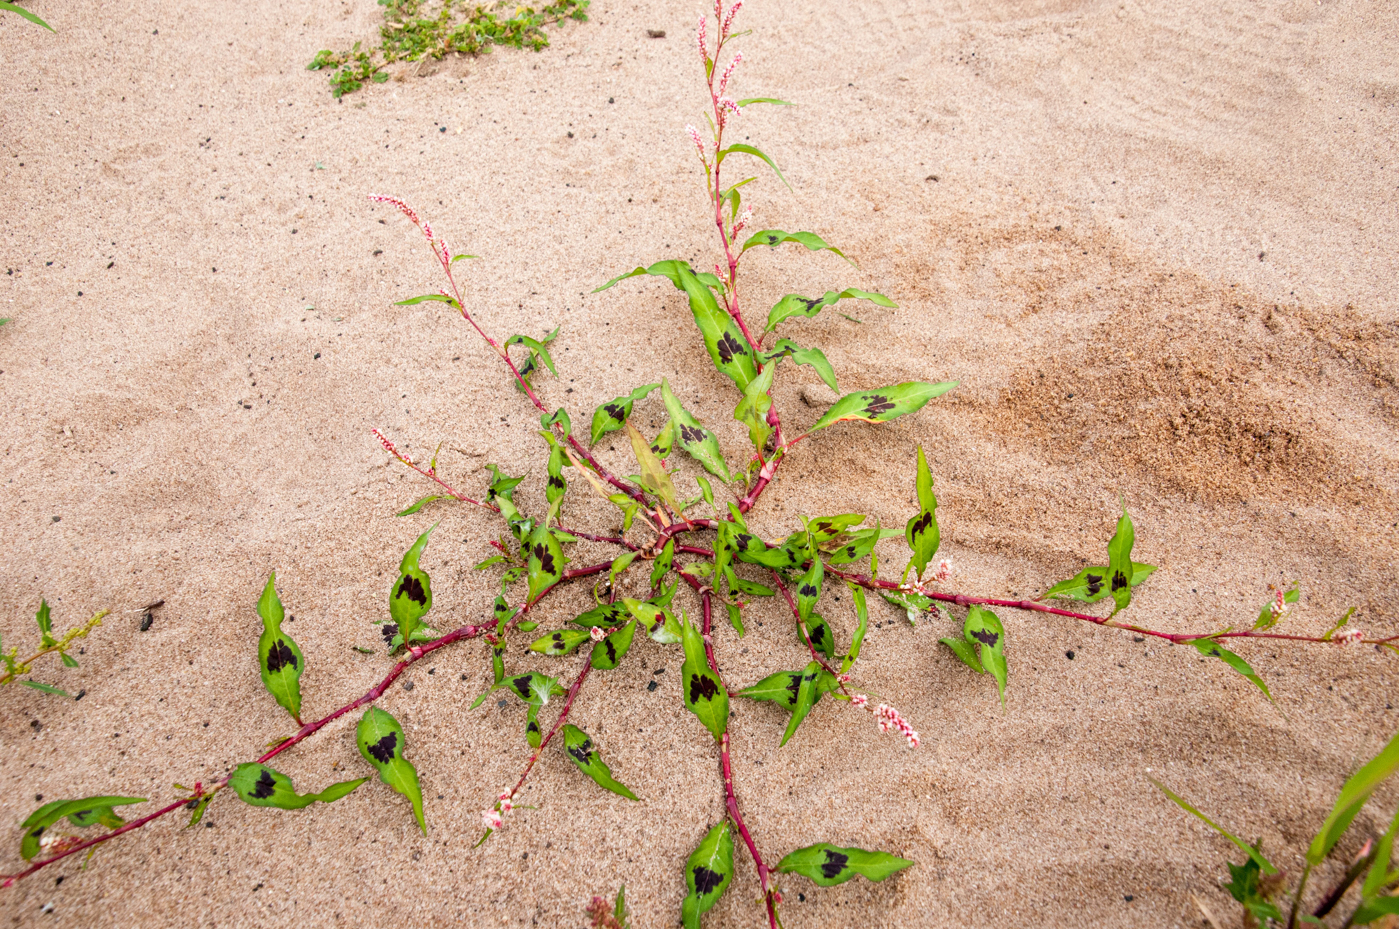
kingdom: Plantae
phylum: Tracheophyta
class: Magnoliopsida
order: Caryophyllales
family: Polygonaceae
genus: Persicaria
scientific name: Persicaria lapathifolia
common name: Curlytop knotweed
